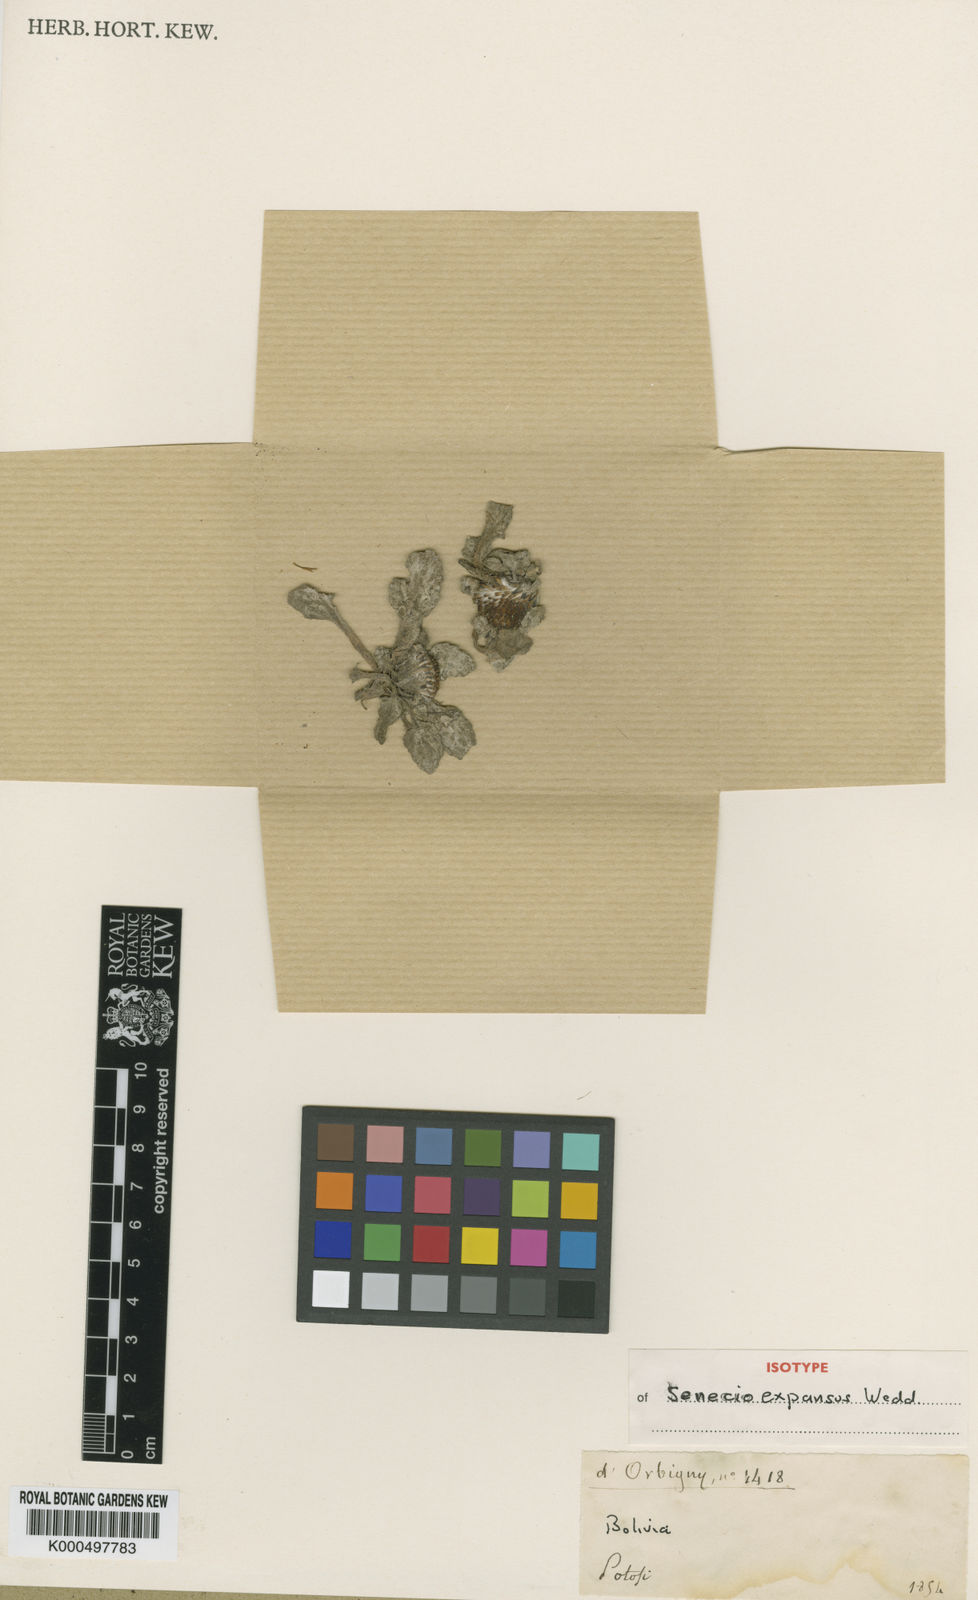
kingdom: Plantae
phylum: Tracheophyta
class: Magnoliopsida
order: Asterales
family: Asteraceae
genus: Senecio
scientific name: Senecio expansus
